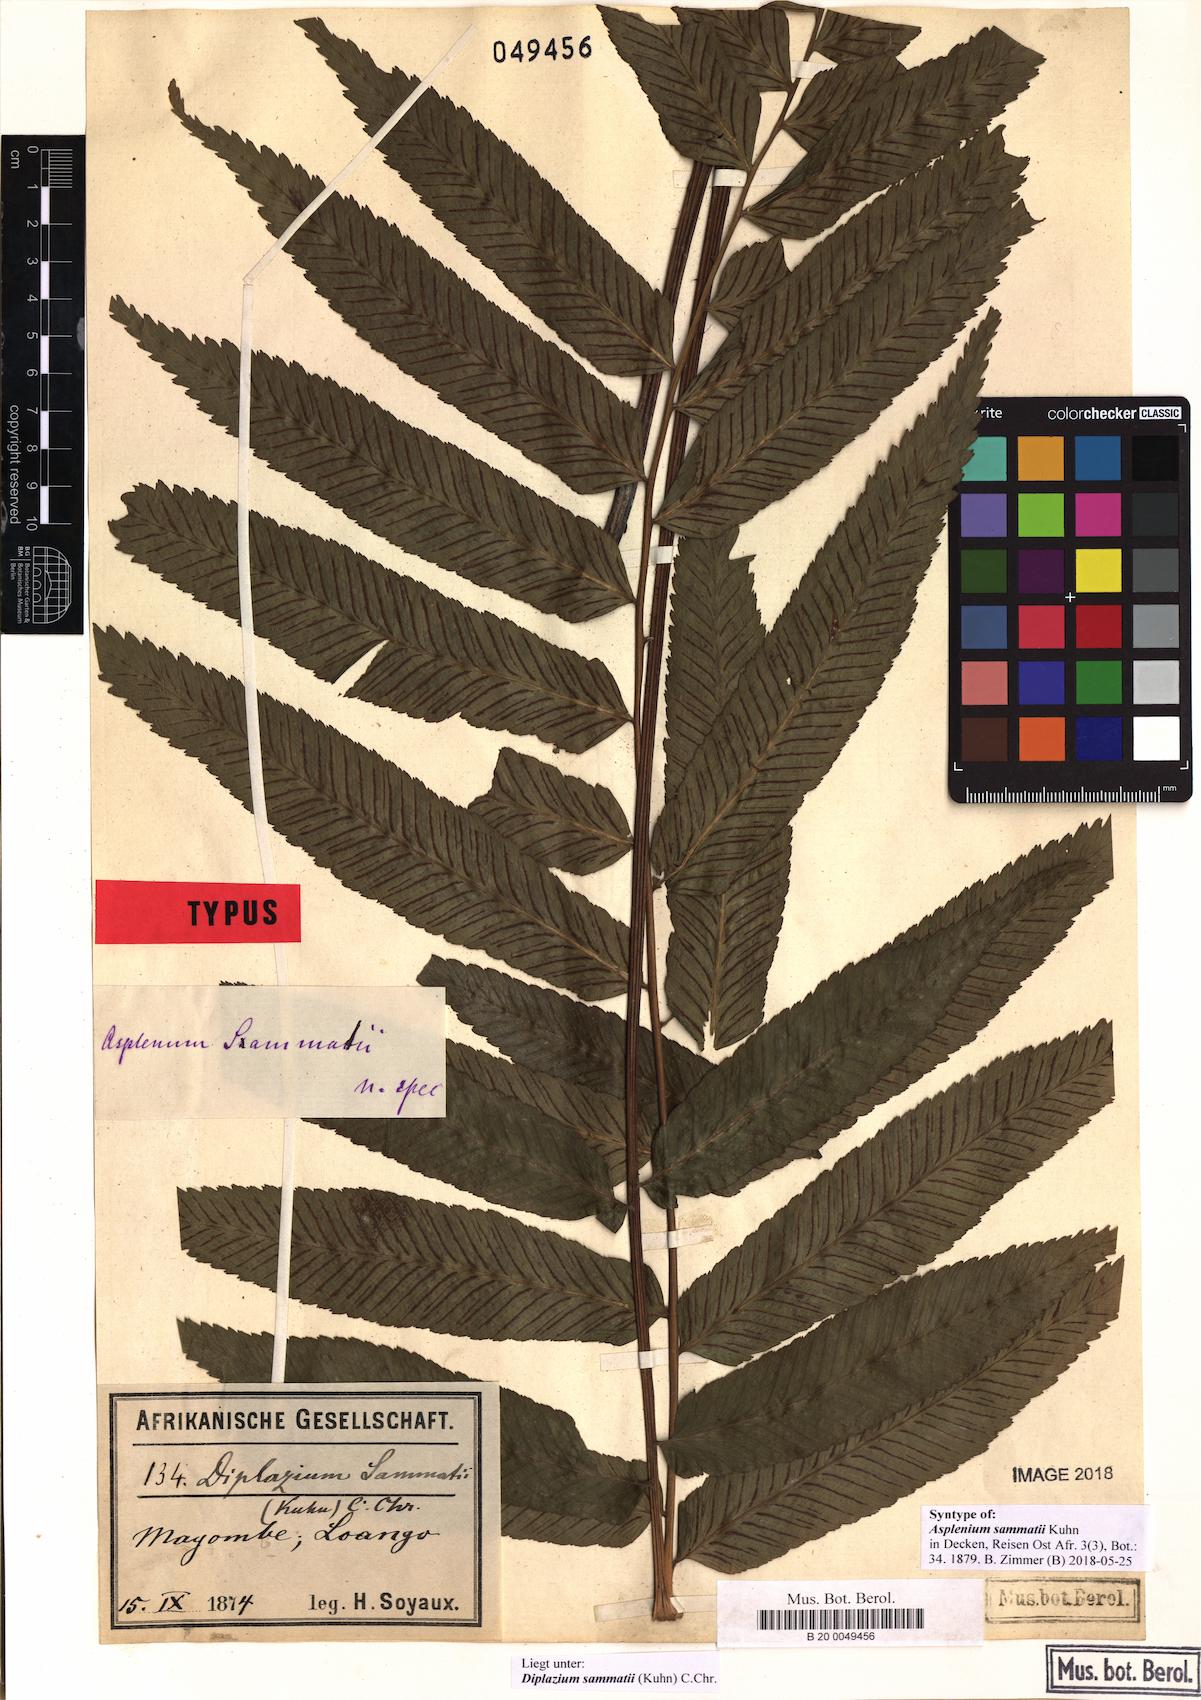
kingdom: Plantae
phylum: Tracheophyta
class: Polypodiopsida
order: Polypodiales
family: Athyriaceae
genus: Diplazium
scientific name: Diplazium sammatii
